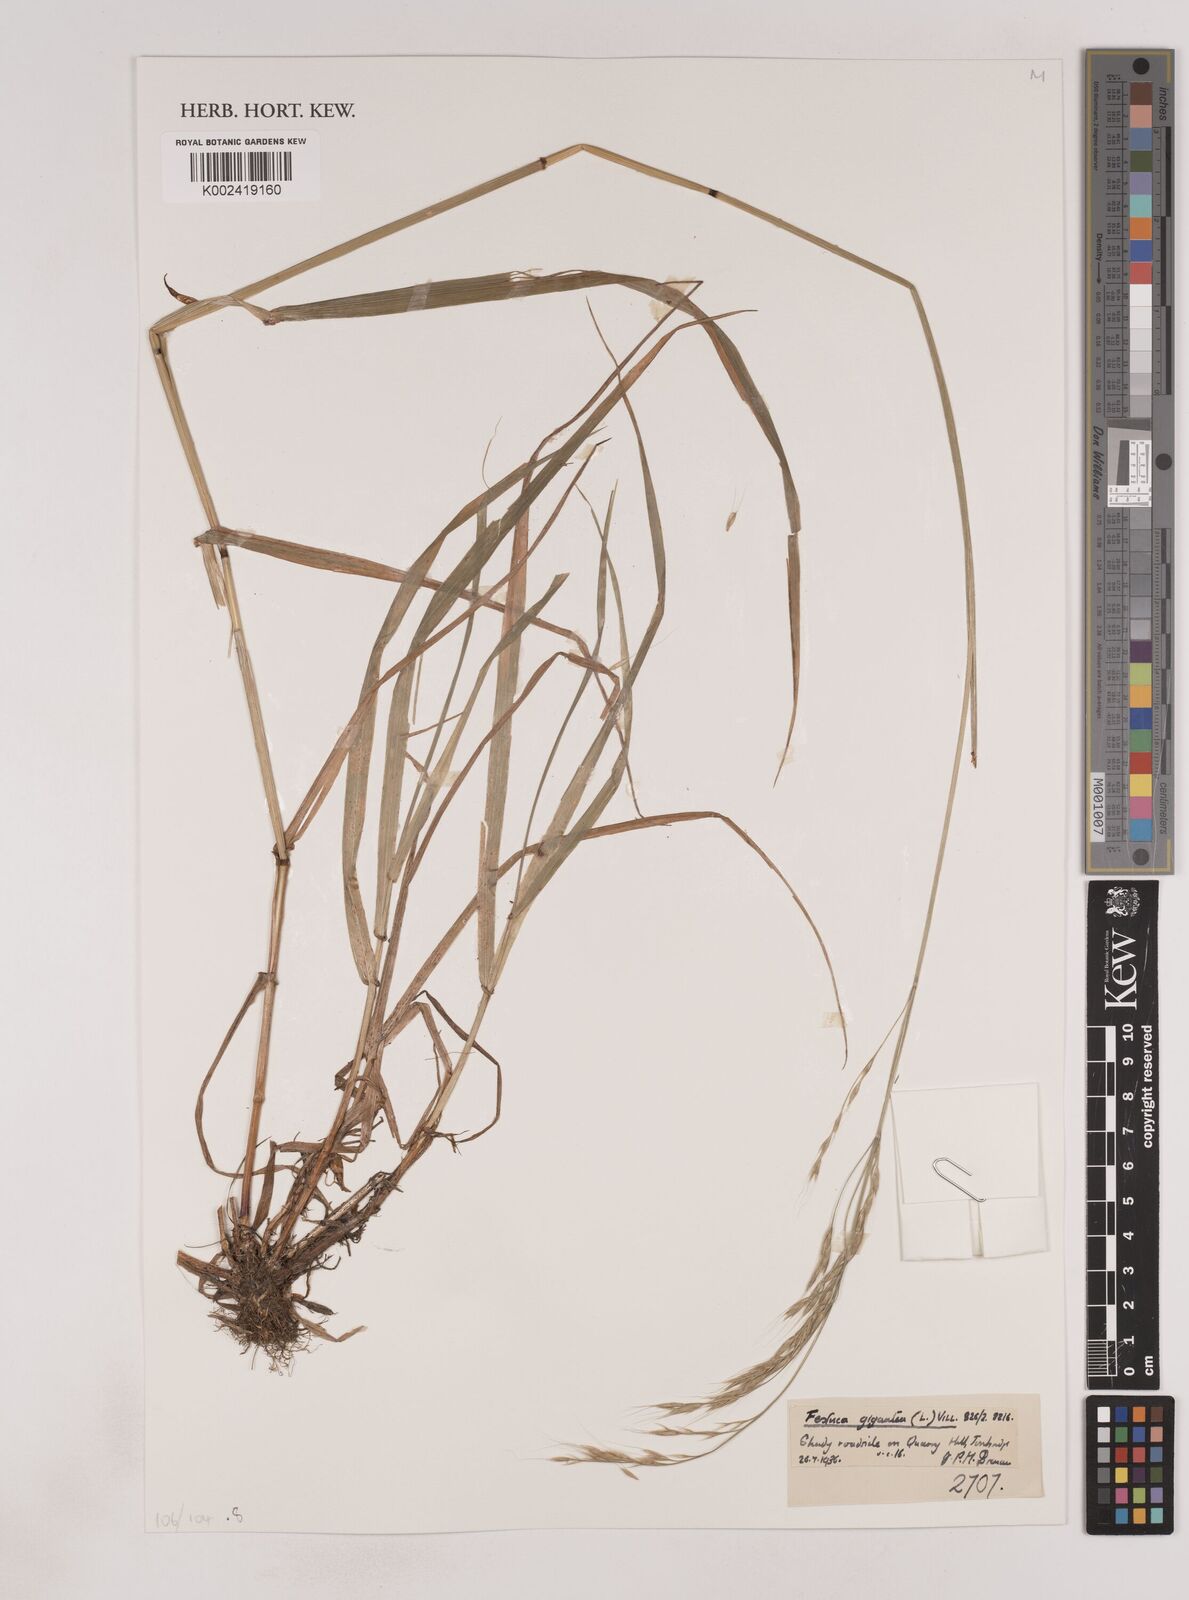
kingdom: Plantae
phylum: Tracheophyta
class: Liliopsida
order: Poales
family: Poaceae
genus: Lolium
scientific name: Lolium giganteum
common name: Giant fescue
